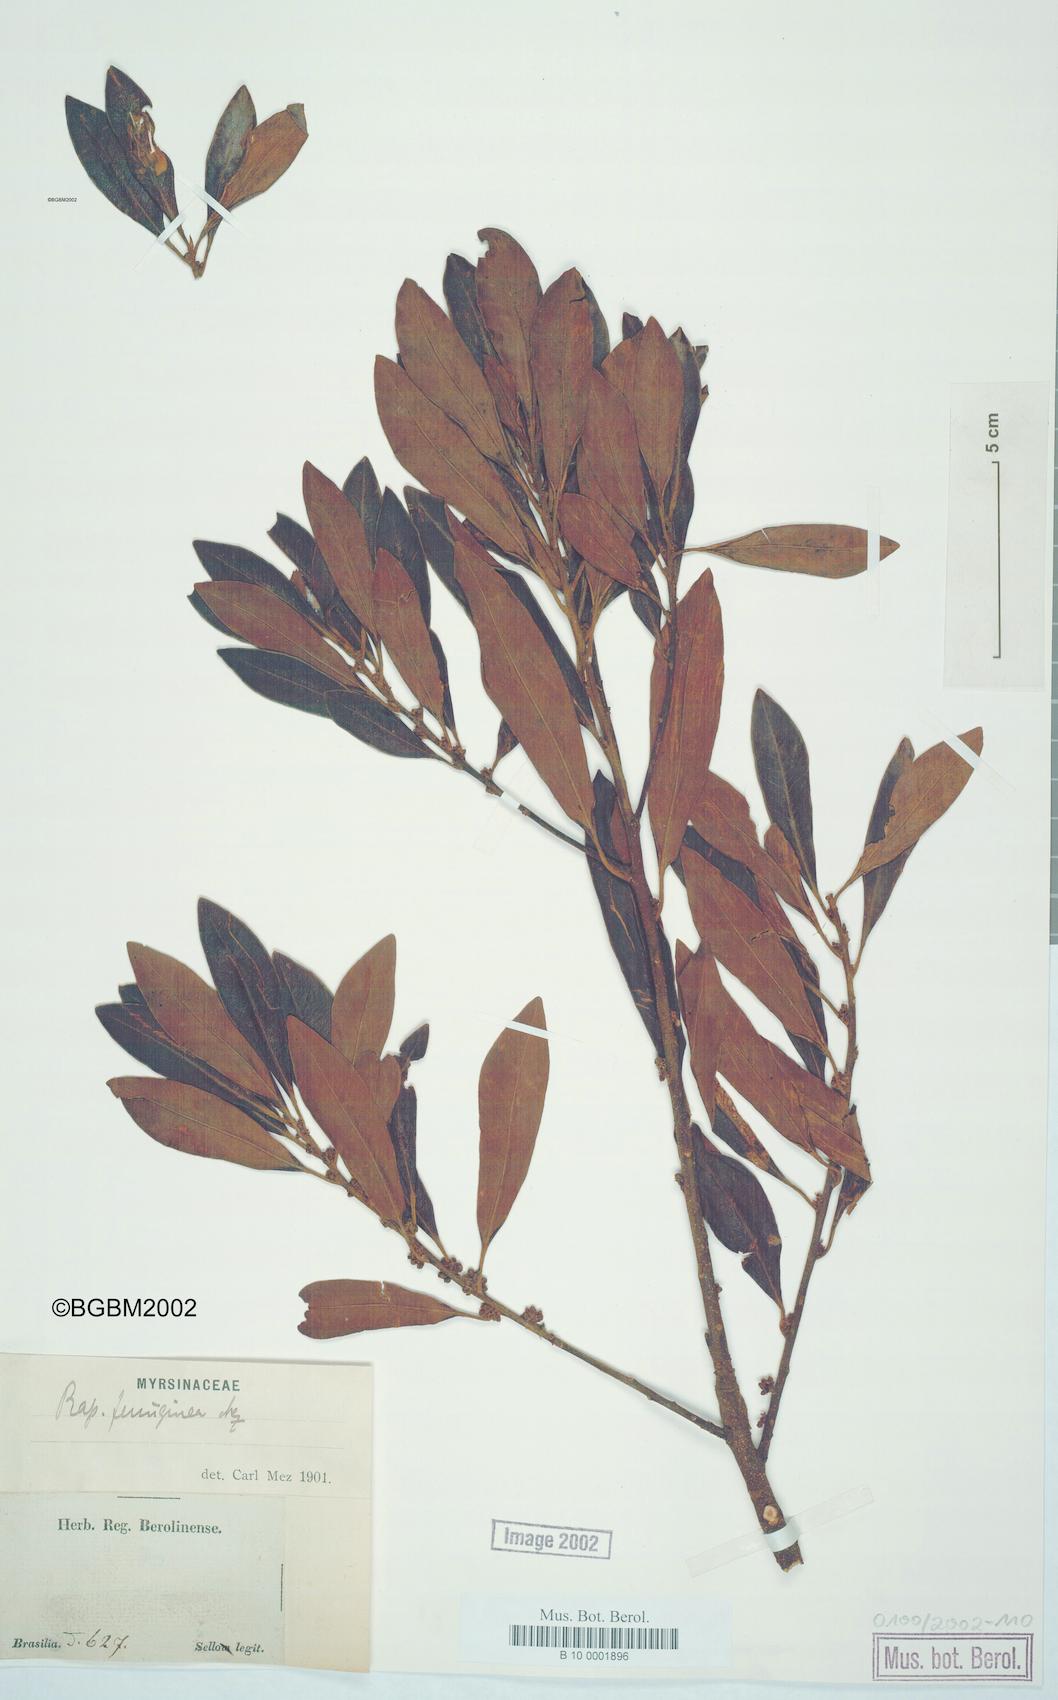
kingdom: Plantae
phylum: Tracheophyta
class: Magnoliopsida
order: Ericales
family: Primulaceae
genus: Myrsine
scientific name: Myrsine coriacea
